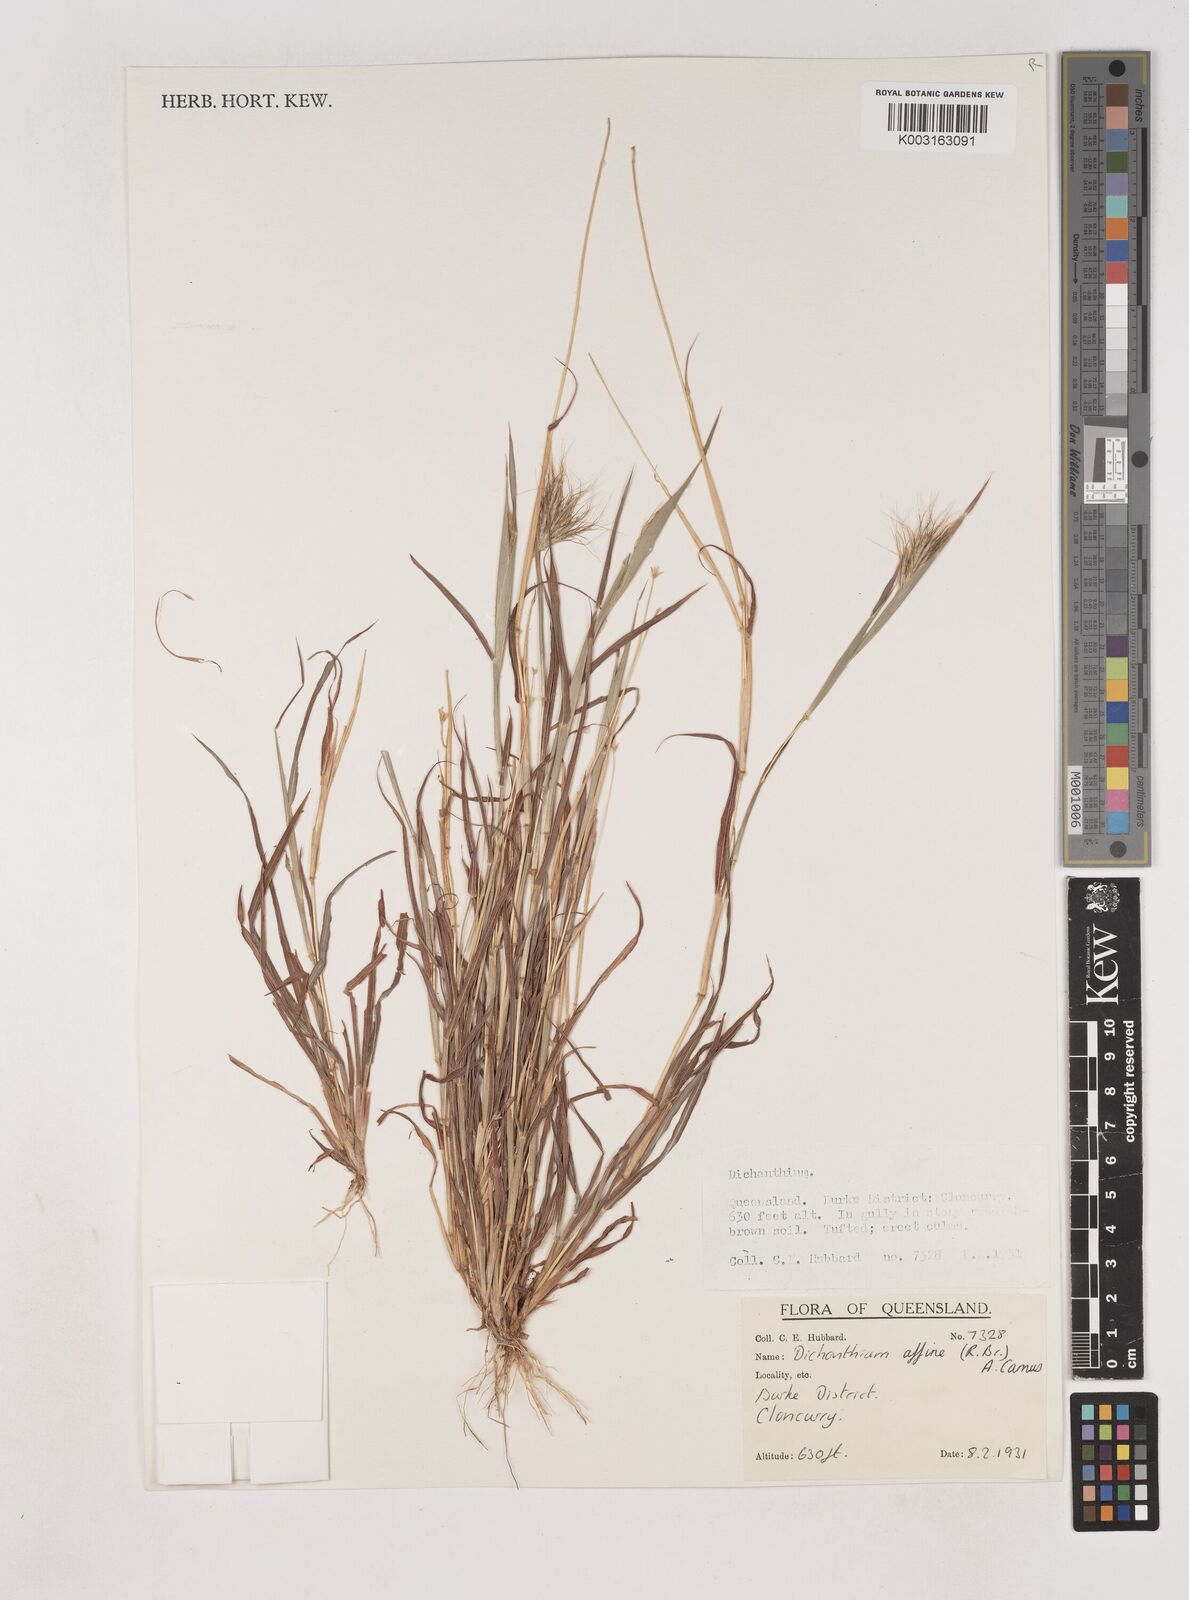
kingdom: Plantae
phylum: Tracheophyta
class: Liliopsida
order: Poales
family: Poaceae
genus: Dichanthium
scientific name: Dichanthium sericeum
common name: Silky bluestem
